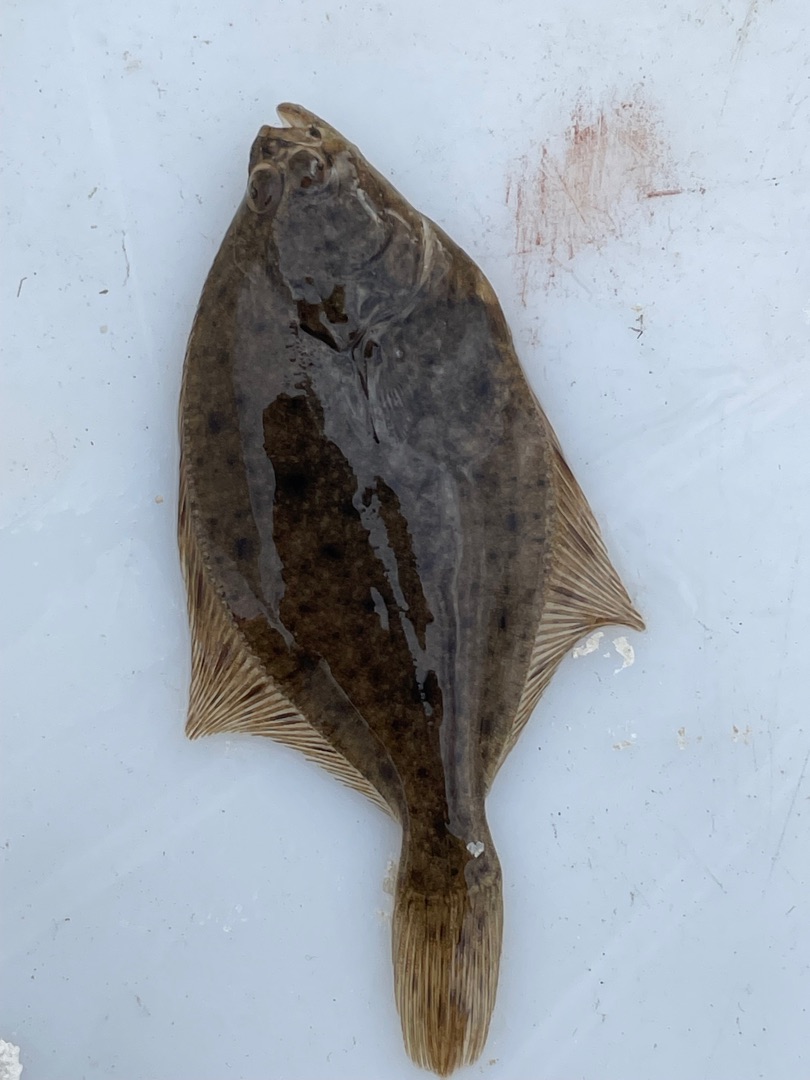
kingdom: Animalia
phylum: Chordata
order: Pleuronectiformes
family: Pleuronectidae
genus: Platichthys
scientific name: Platichthys flesus
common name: Skrubbe
